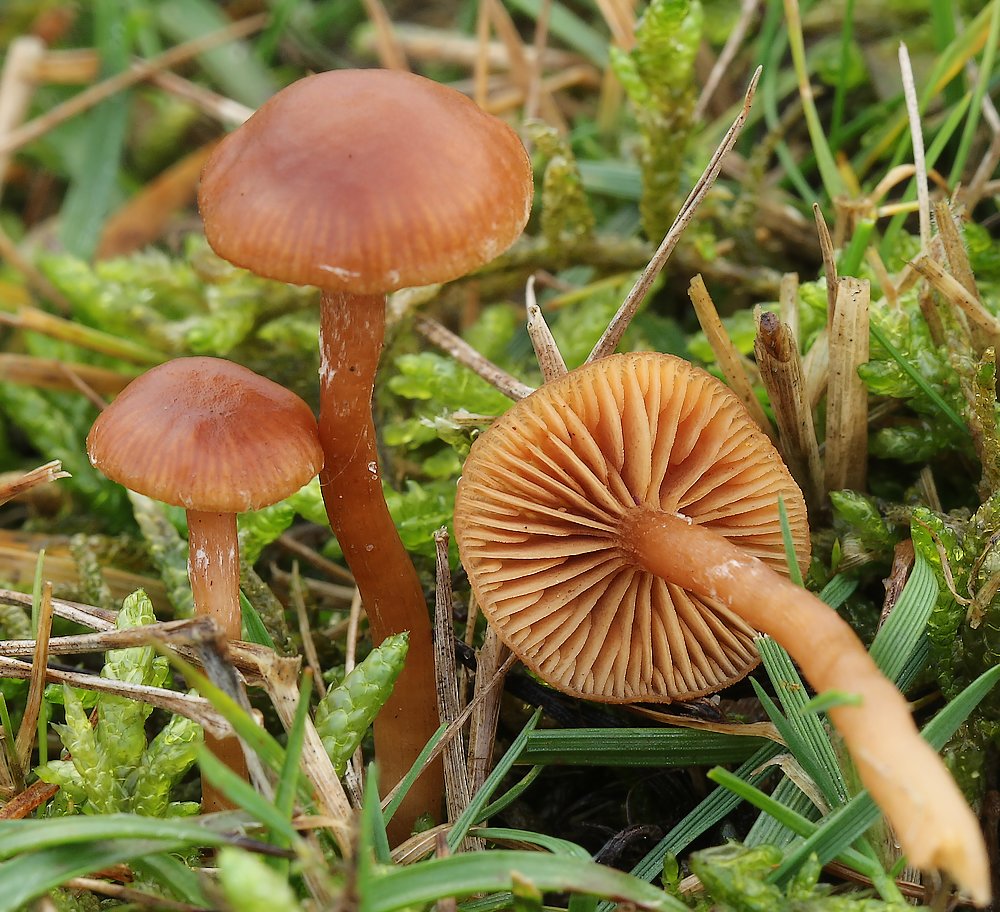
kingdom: Fungi
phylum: Basidiomycota
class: Agaricomycetes
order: Agaricales
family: Tubariaceae
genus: Tubaria
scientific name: Tubaria furfuracea
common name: kliddet fnughat
